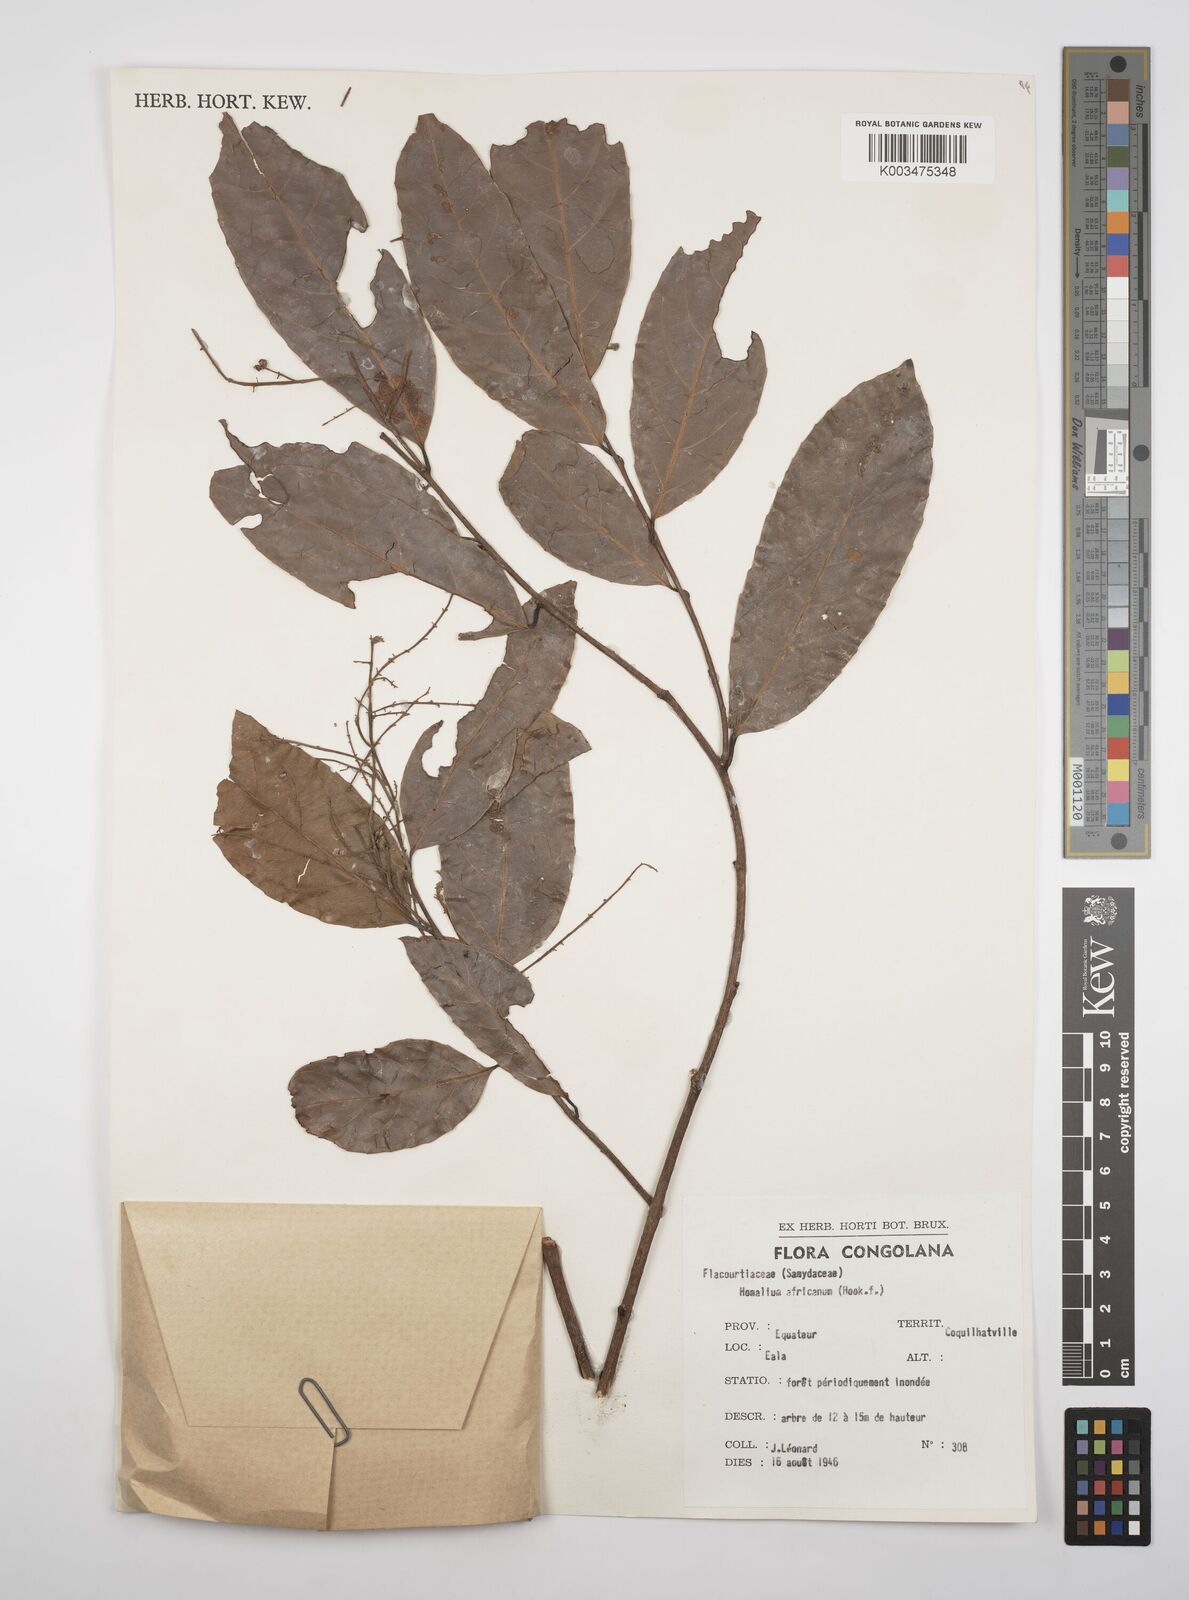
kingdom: Plantae
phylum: Tracheophyta
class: Magnoliopsida
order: Malpighiales
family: Salicaceae
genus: Homalium
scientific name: Homalium africanum
